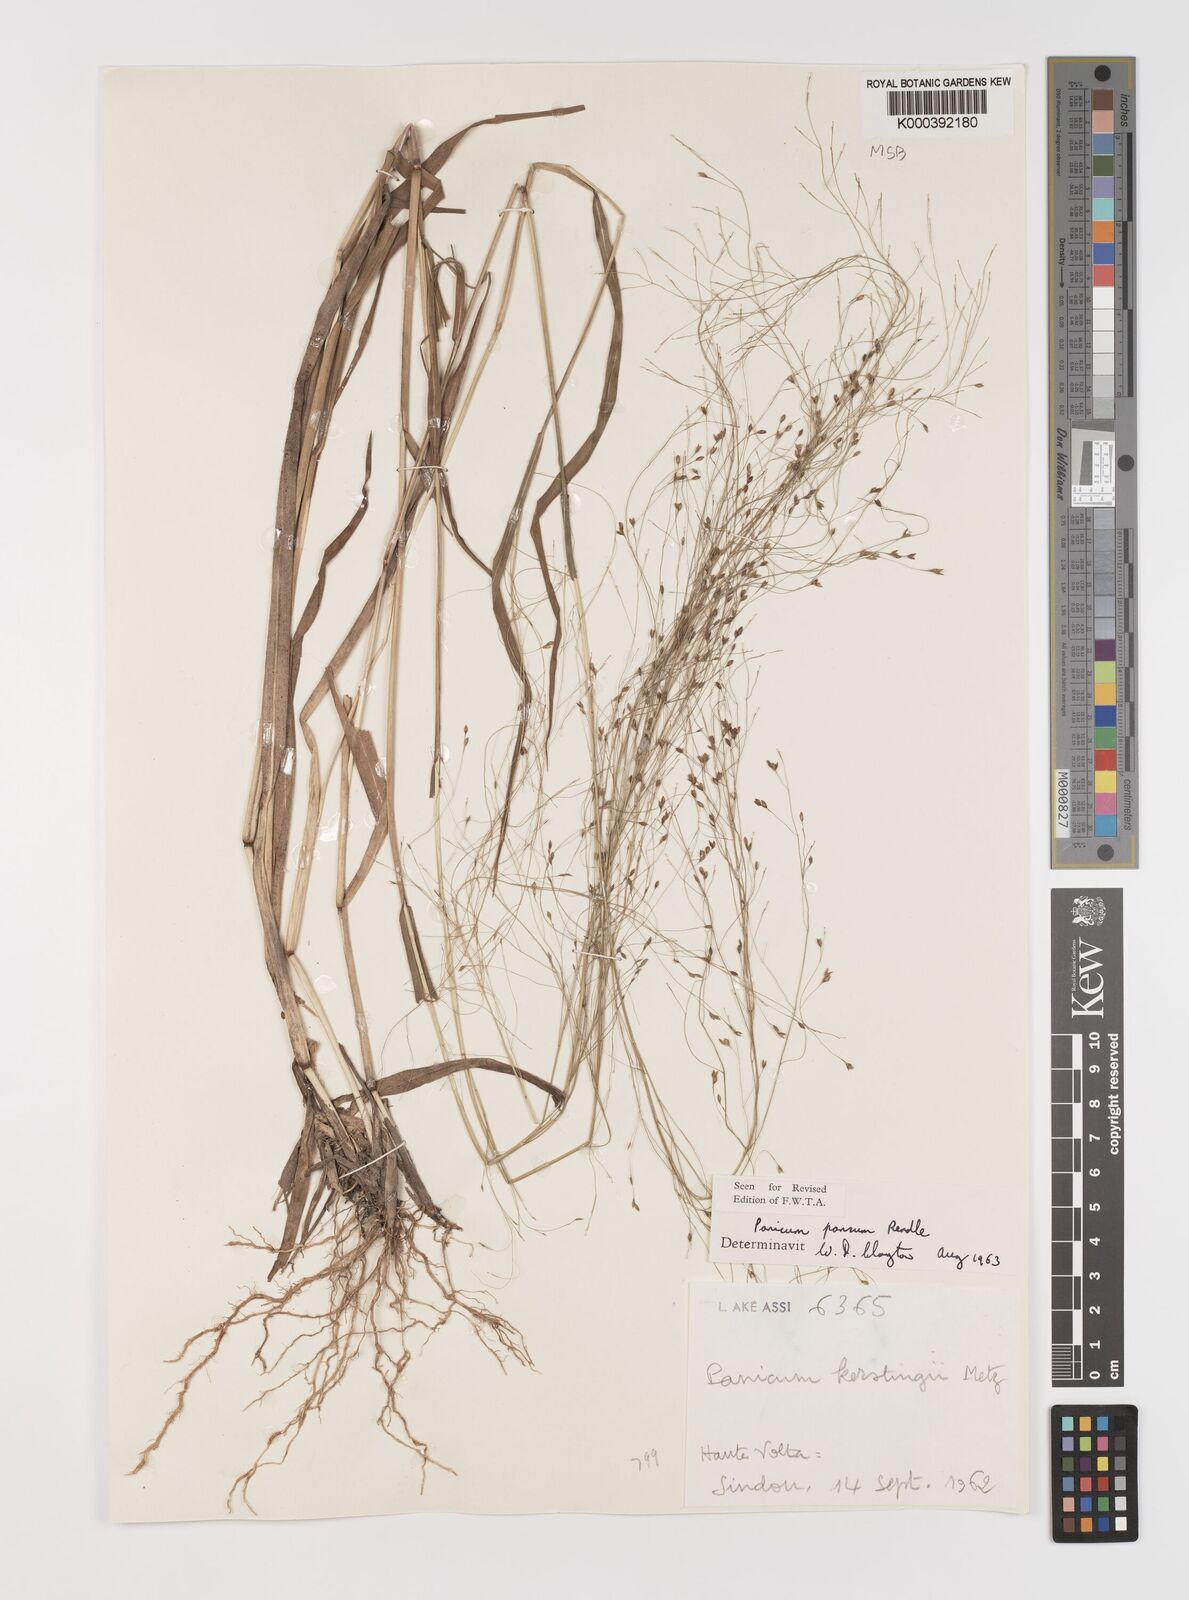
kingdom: Plantae
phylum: Tracheophyta
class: Liliopsida
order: Poales
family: Poaceae
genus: Panicum
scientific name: Panicum pansum
